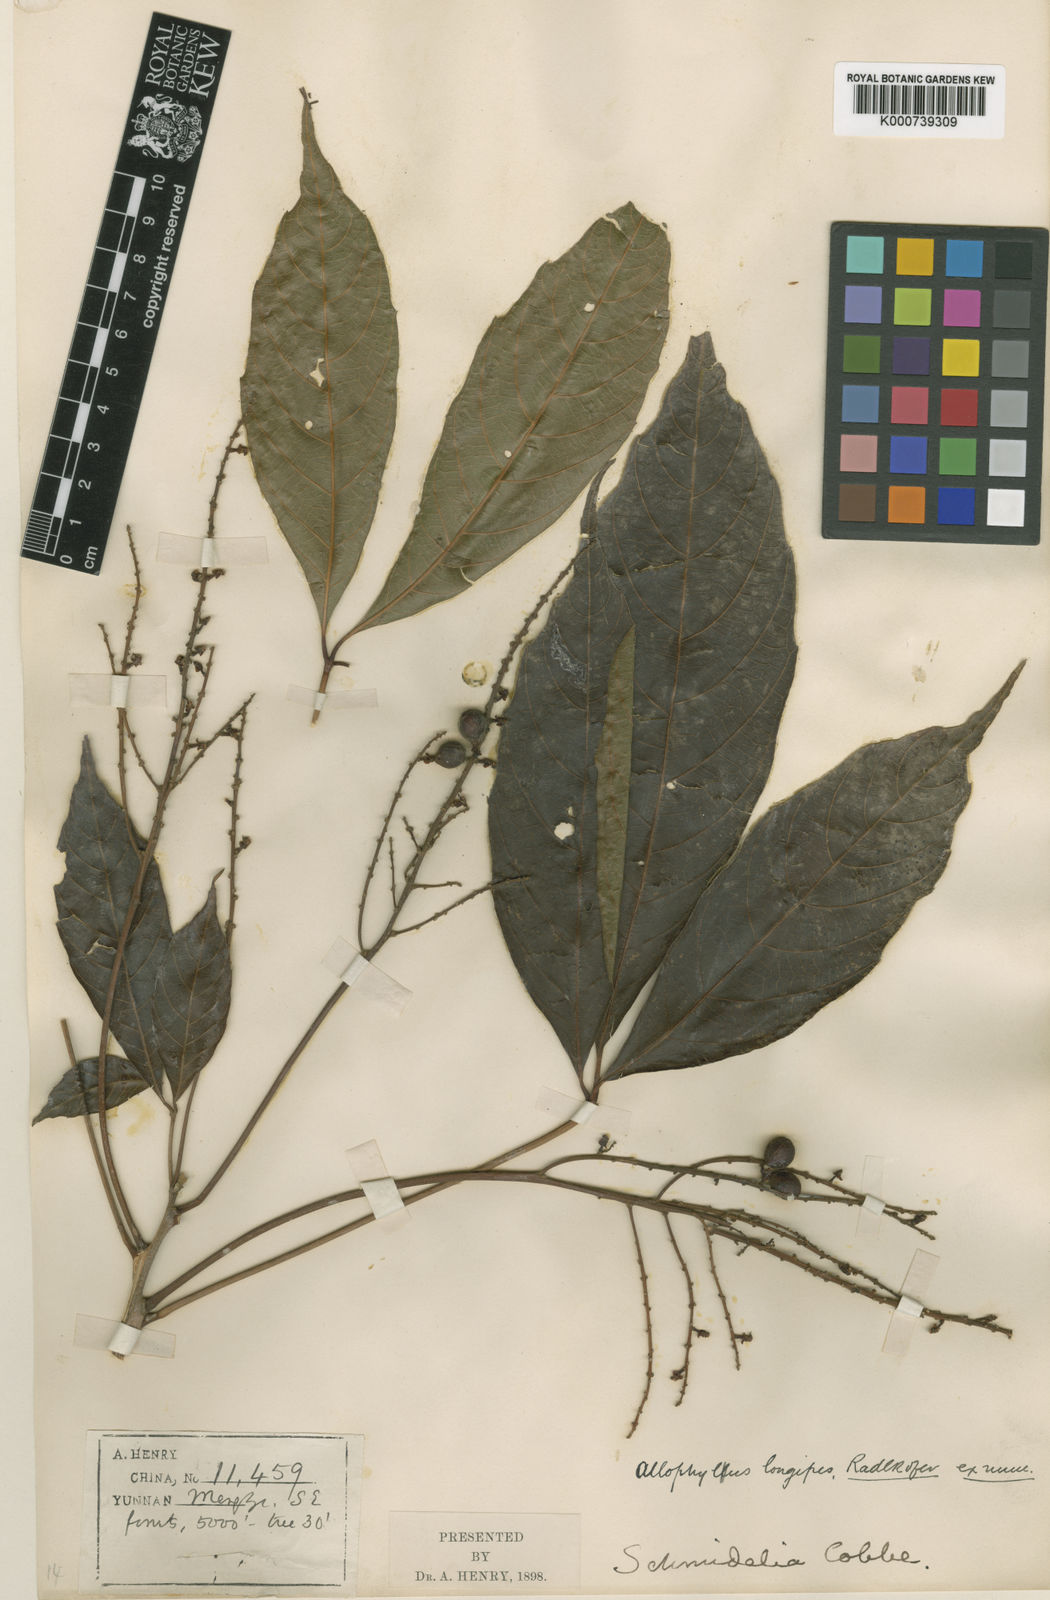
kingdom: Plantae
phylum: Tracheophyta
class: Magnoliopsida
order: Sapindales
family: Sapindaceae
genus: Allophylus
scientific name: Allophylus longipes
